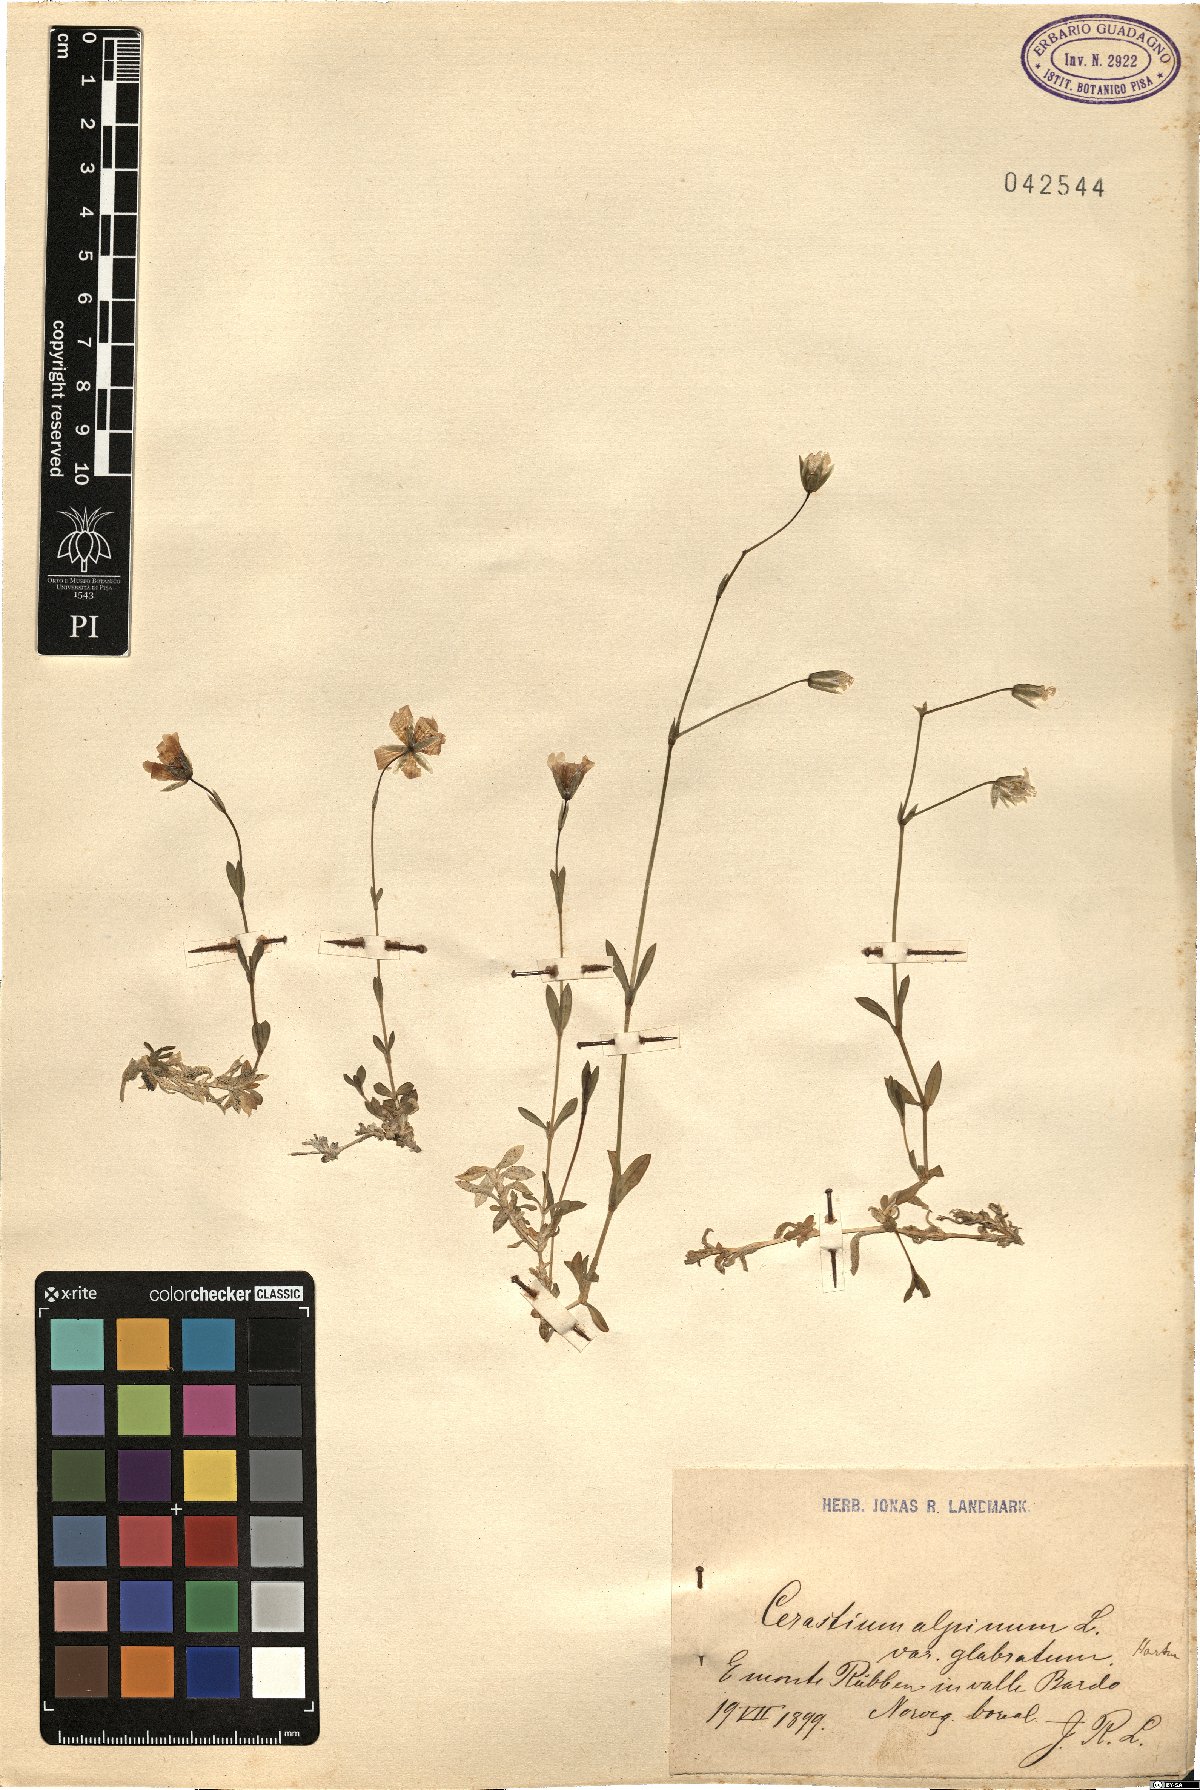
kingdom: Plantae
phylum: Tracheophyta
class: Magnoliopsida
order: Caryophyllales
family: Caryophyllaceae
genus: Cerastium
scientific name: Cerastium alpinum
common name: Alpine mouse-ear
